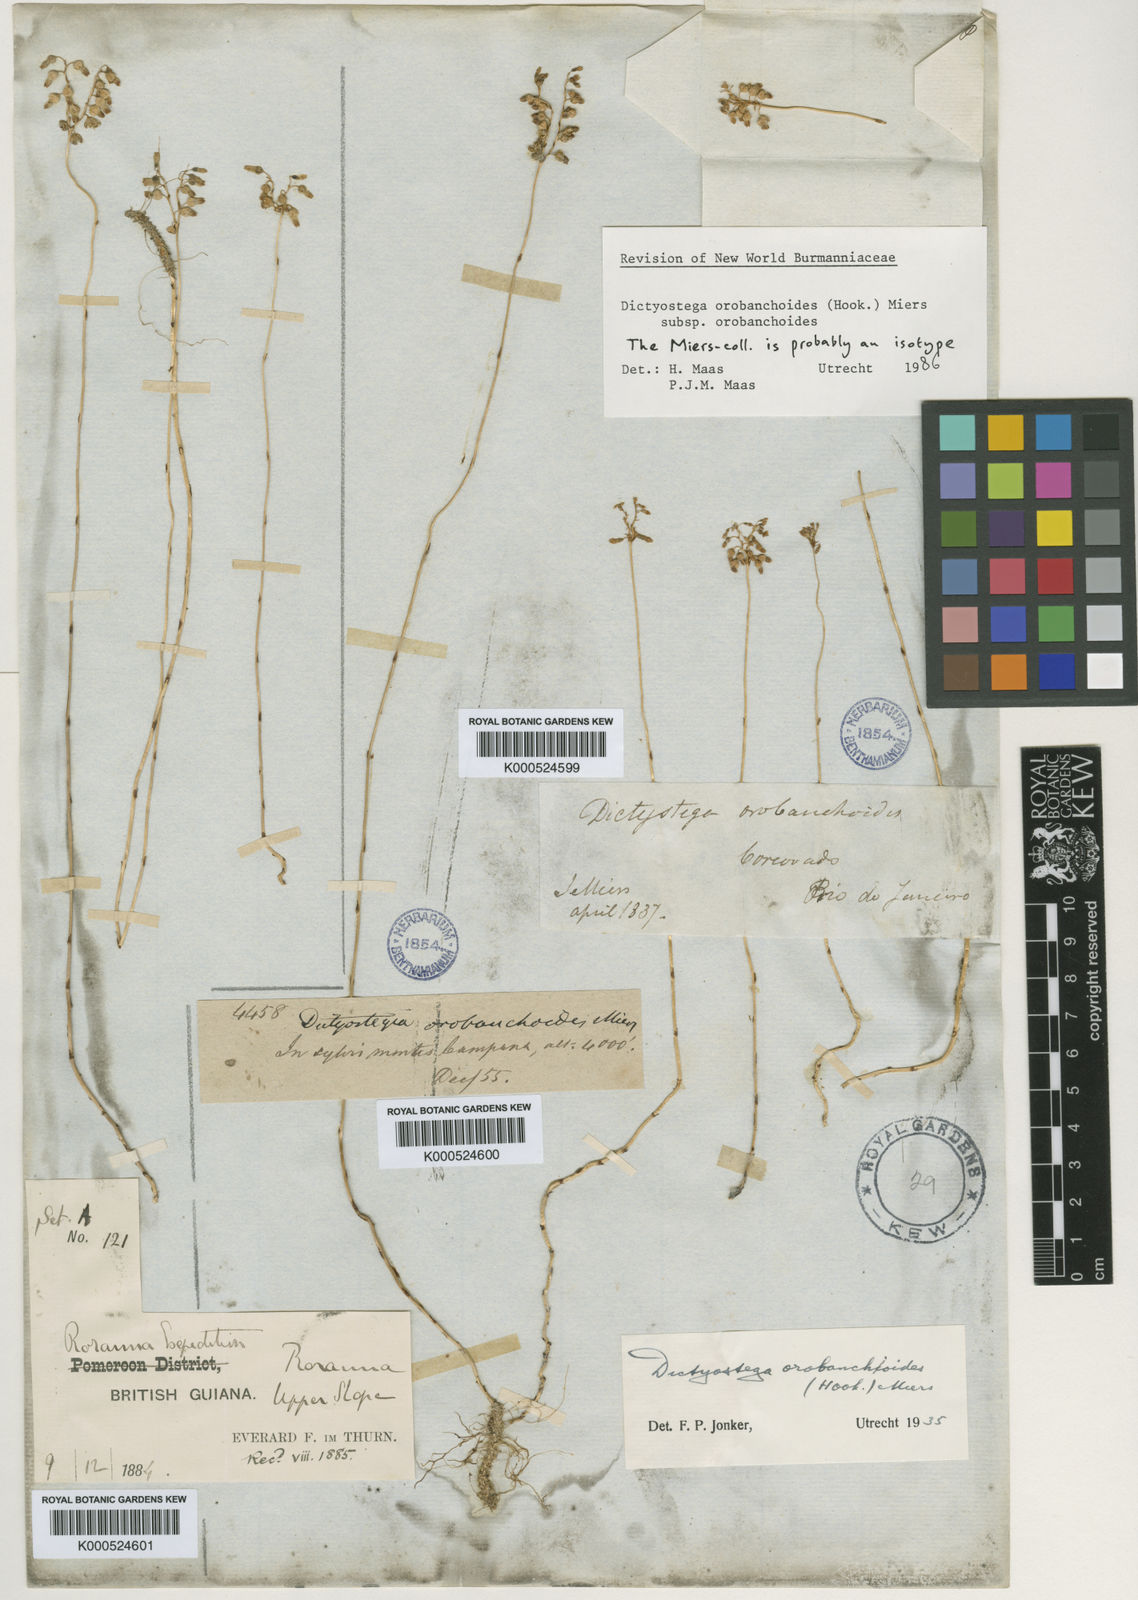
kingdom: Plantae
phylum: Tracheophyta
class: Liliopsida
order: Dioscoreales
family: Burmanniaceae
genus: Dictyostega
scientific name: Dictyostega orobanchoides
